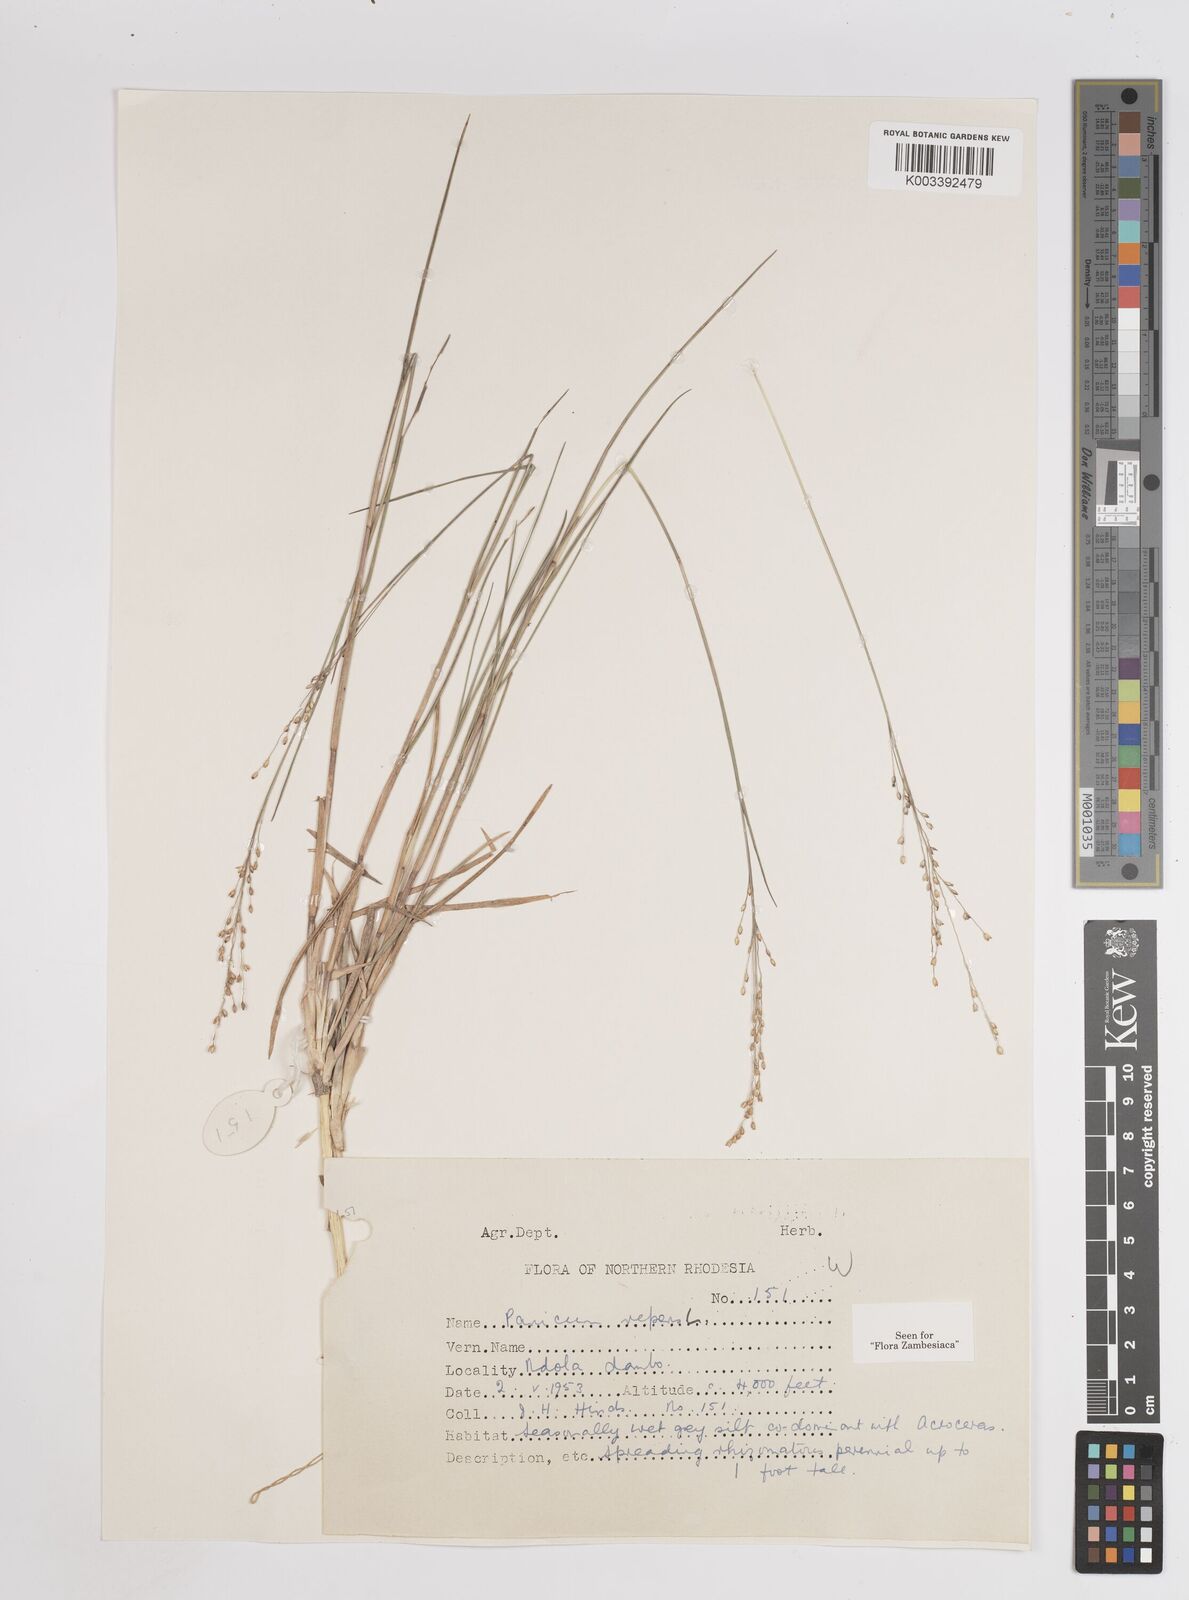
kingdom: Plantae
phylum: Tracheophyta
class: Liliopsida
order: Poales
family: Poaceae
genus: Panicum
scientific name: Panicum repens
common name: Torpedo grass
